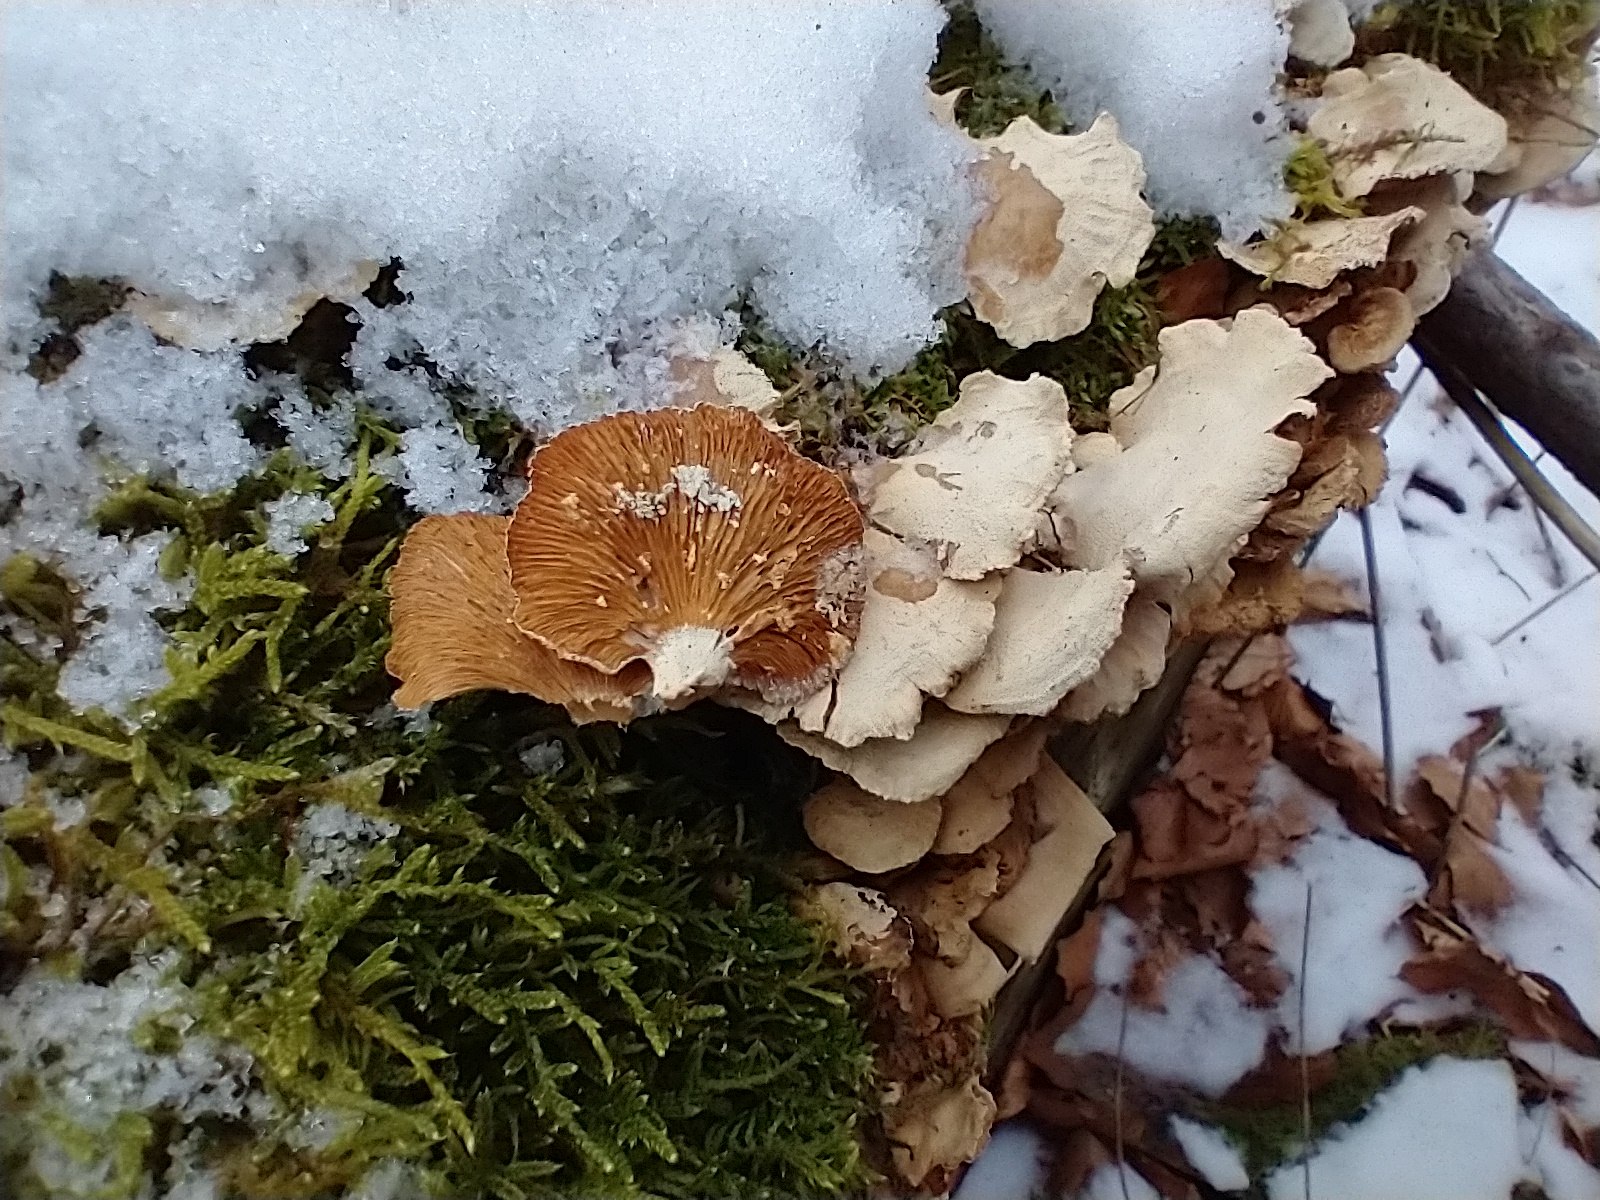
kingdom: Fungi
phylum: Basidiomycota
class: Agaricomycetes
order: Agaricales
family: Mycenaceae
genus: Panellus
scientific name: Panellus stipticus
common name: kliddet epaulethat
